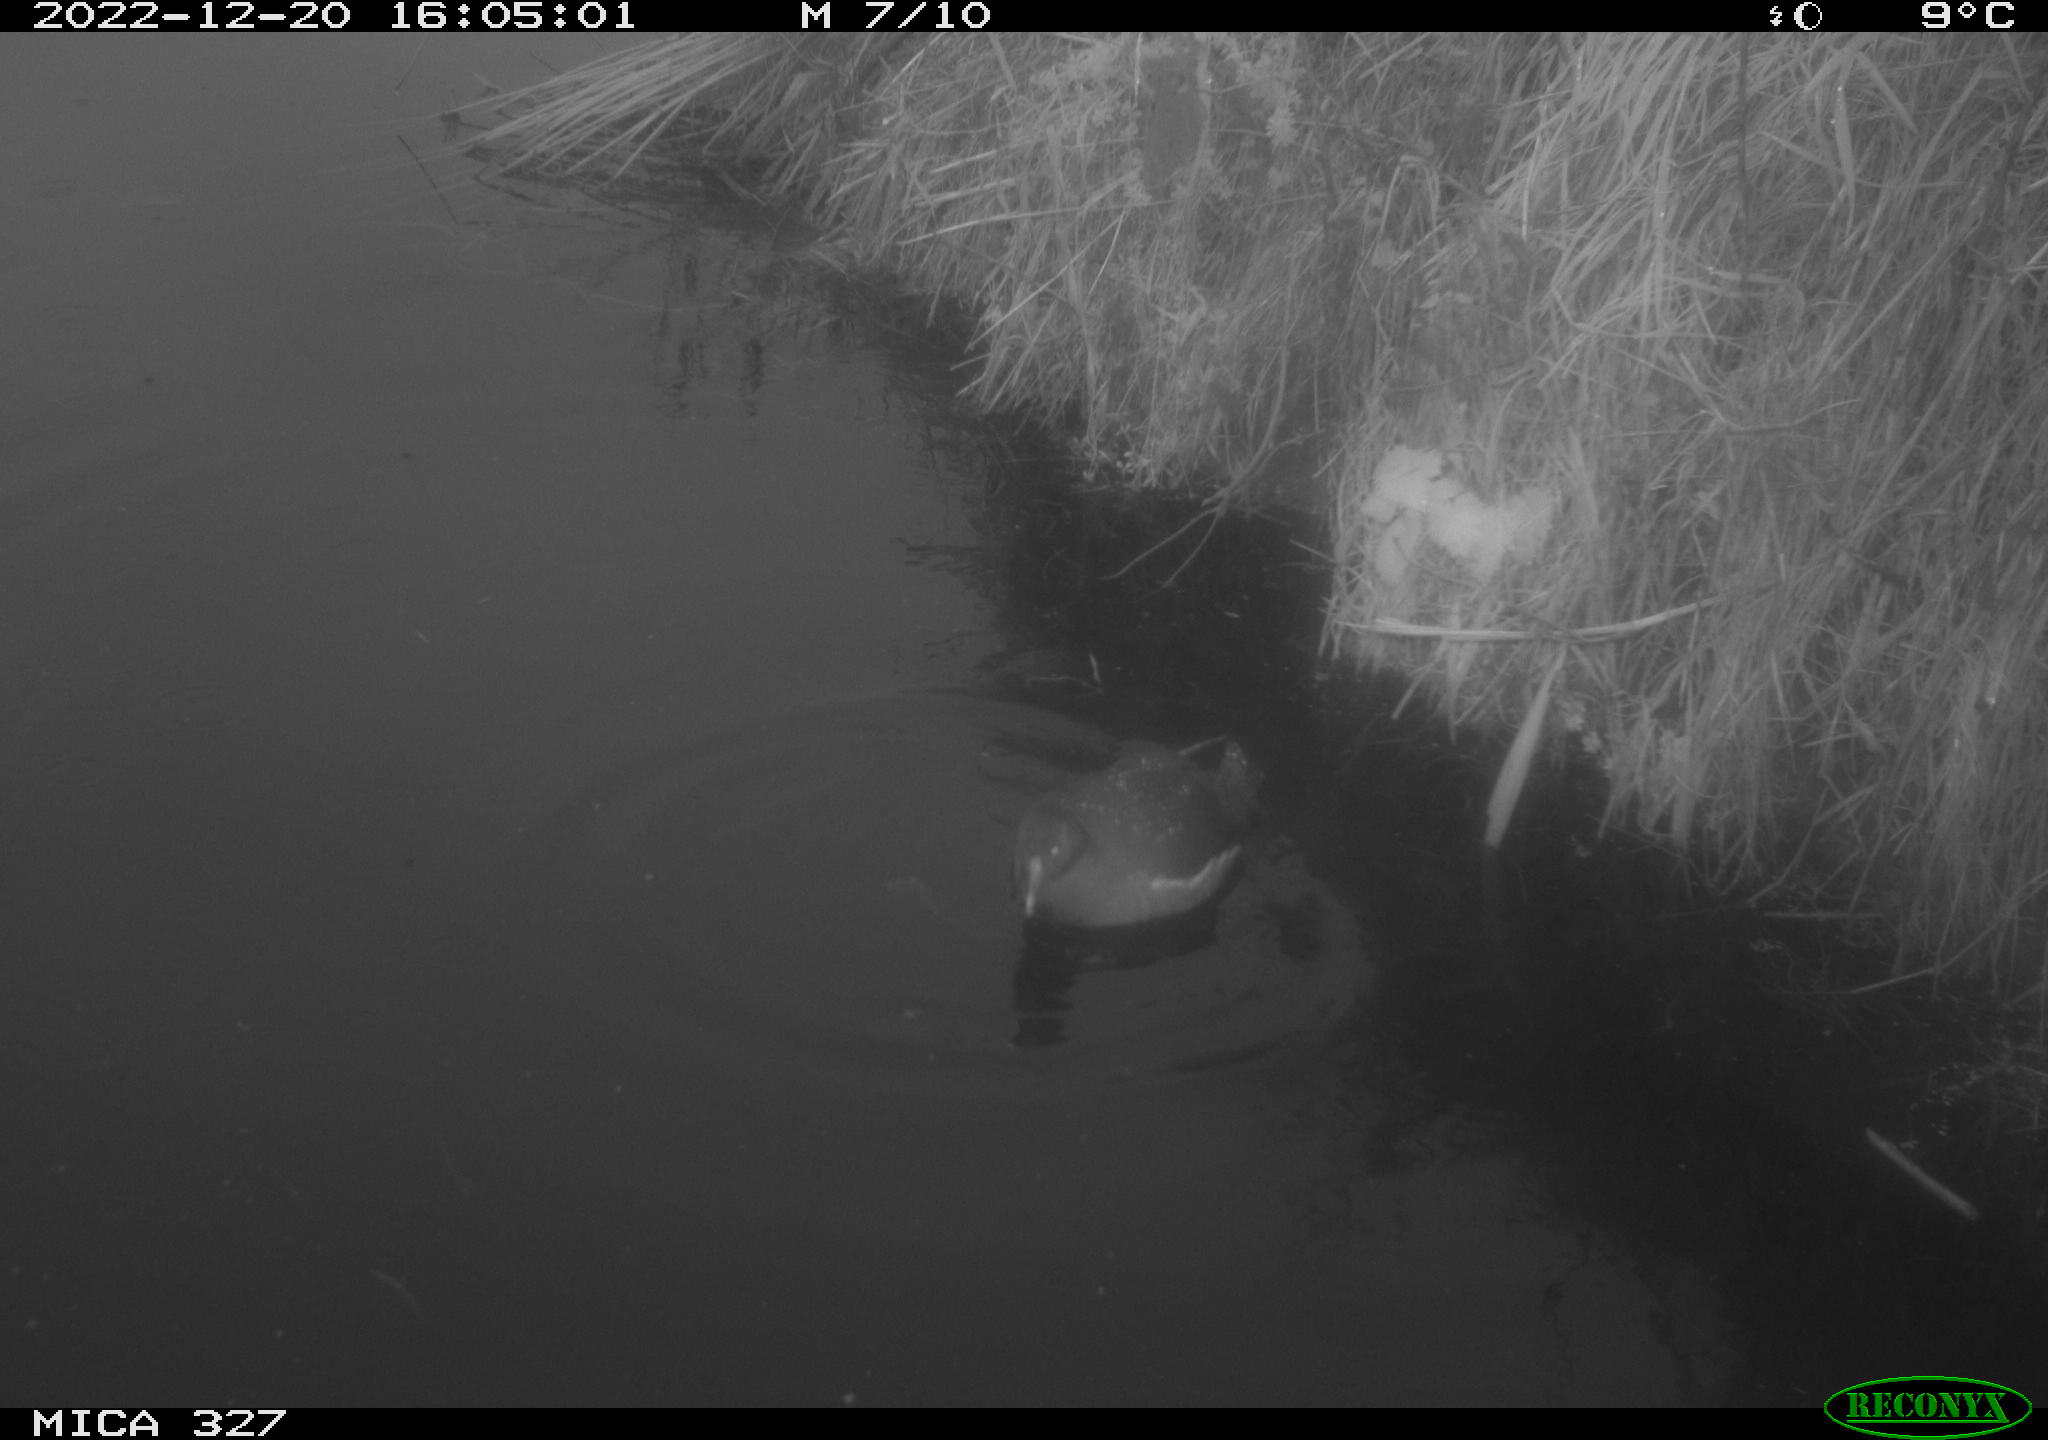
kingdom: Animalia
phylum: Chordata
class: Aves
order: Gruiformes
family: Rallidae
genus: Gallinula
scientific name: Gallinula chloropus
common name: Common moorhen
